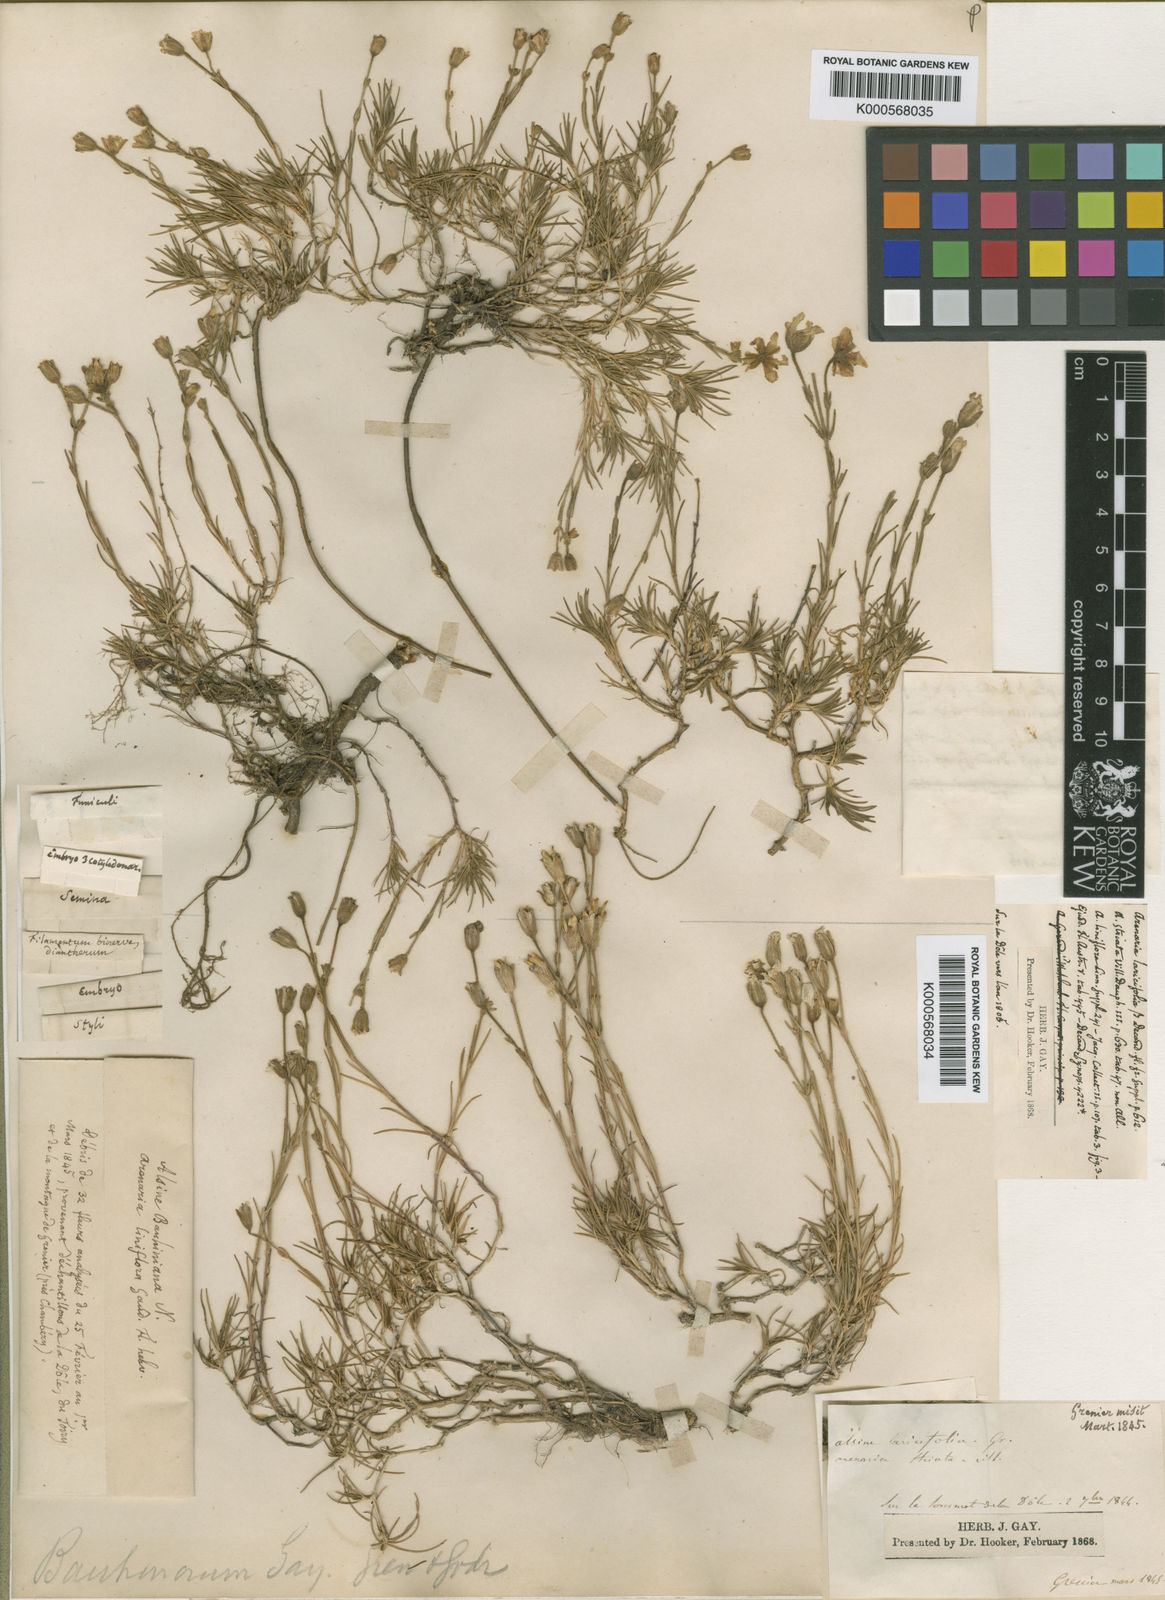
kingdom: Plantae
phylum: Tracheophyta
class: Magnoliopsida
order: Caryophyllales
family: Caryophyllaceae
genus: Cherleria
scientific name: Cherleria capillacea
